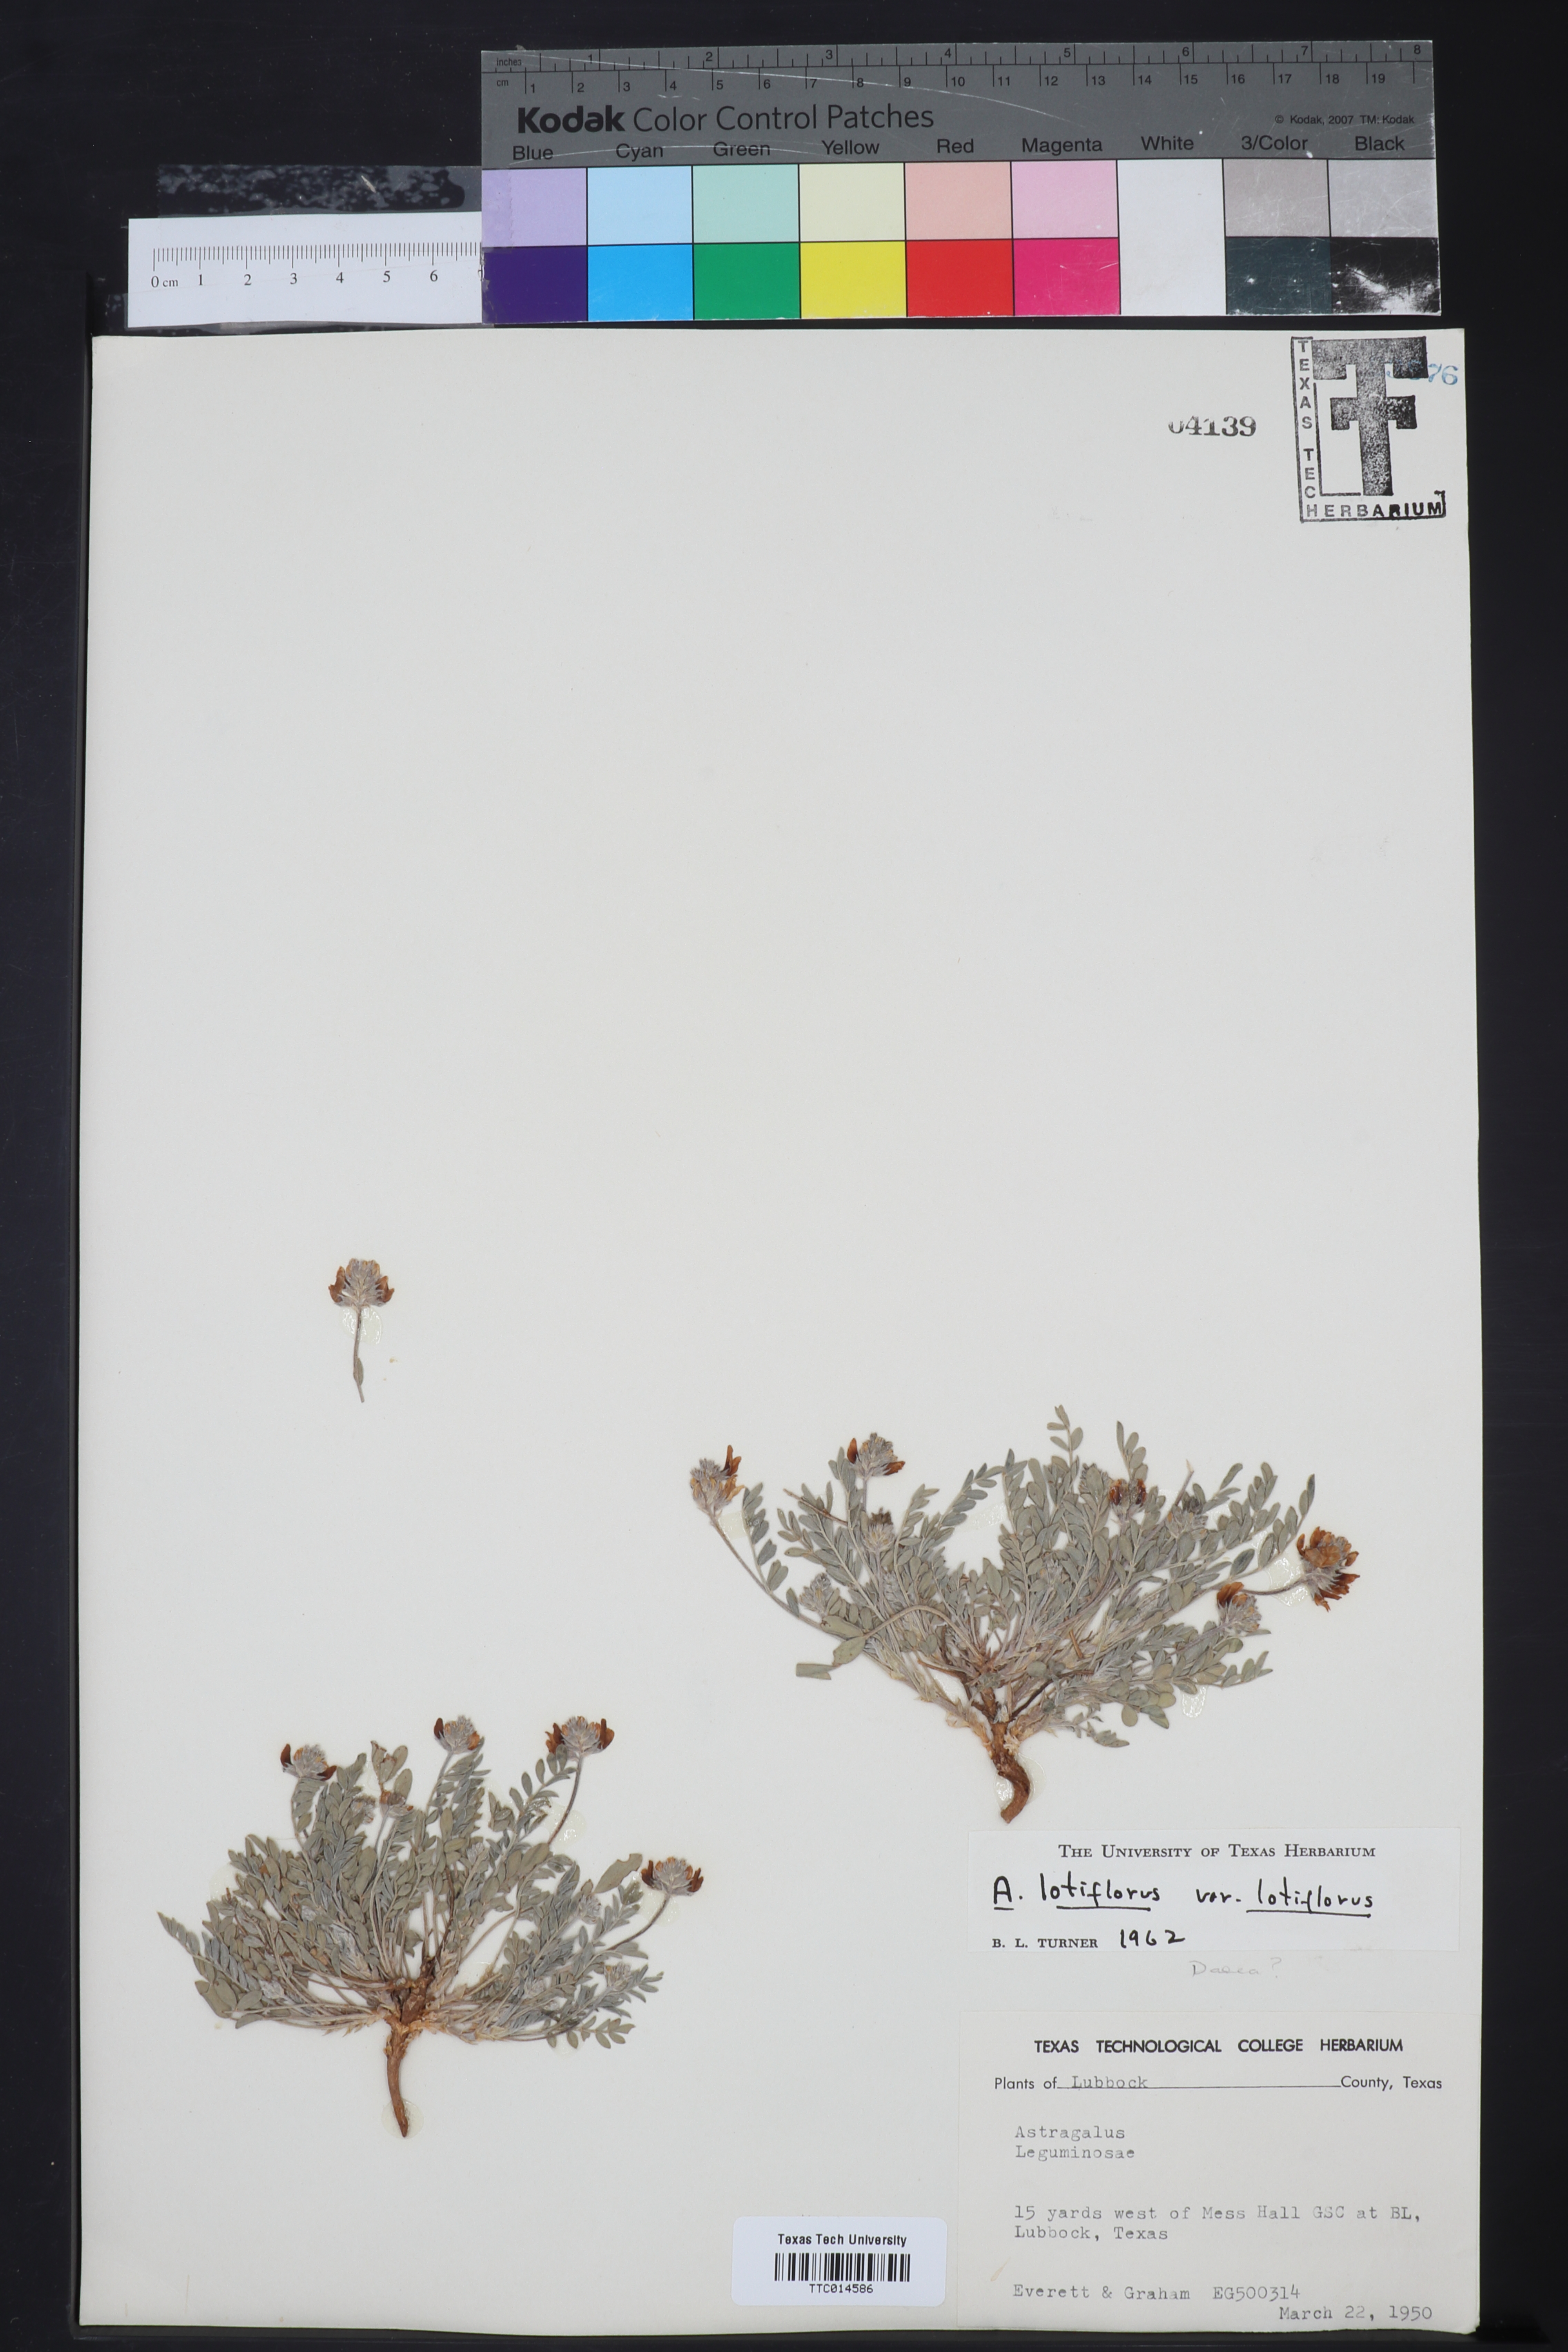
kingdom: Plantae
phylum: Tracheophyta
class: Magnoliopsida
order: Fabales
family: Fabaceae
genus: Astragalus
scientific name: Astragalus lotiflorus
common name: Lotus milk-vetch
